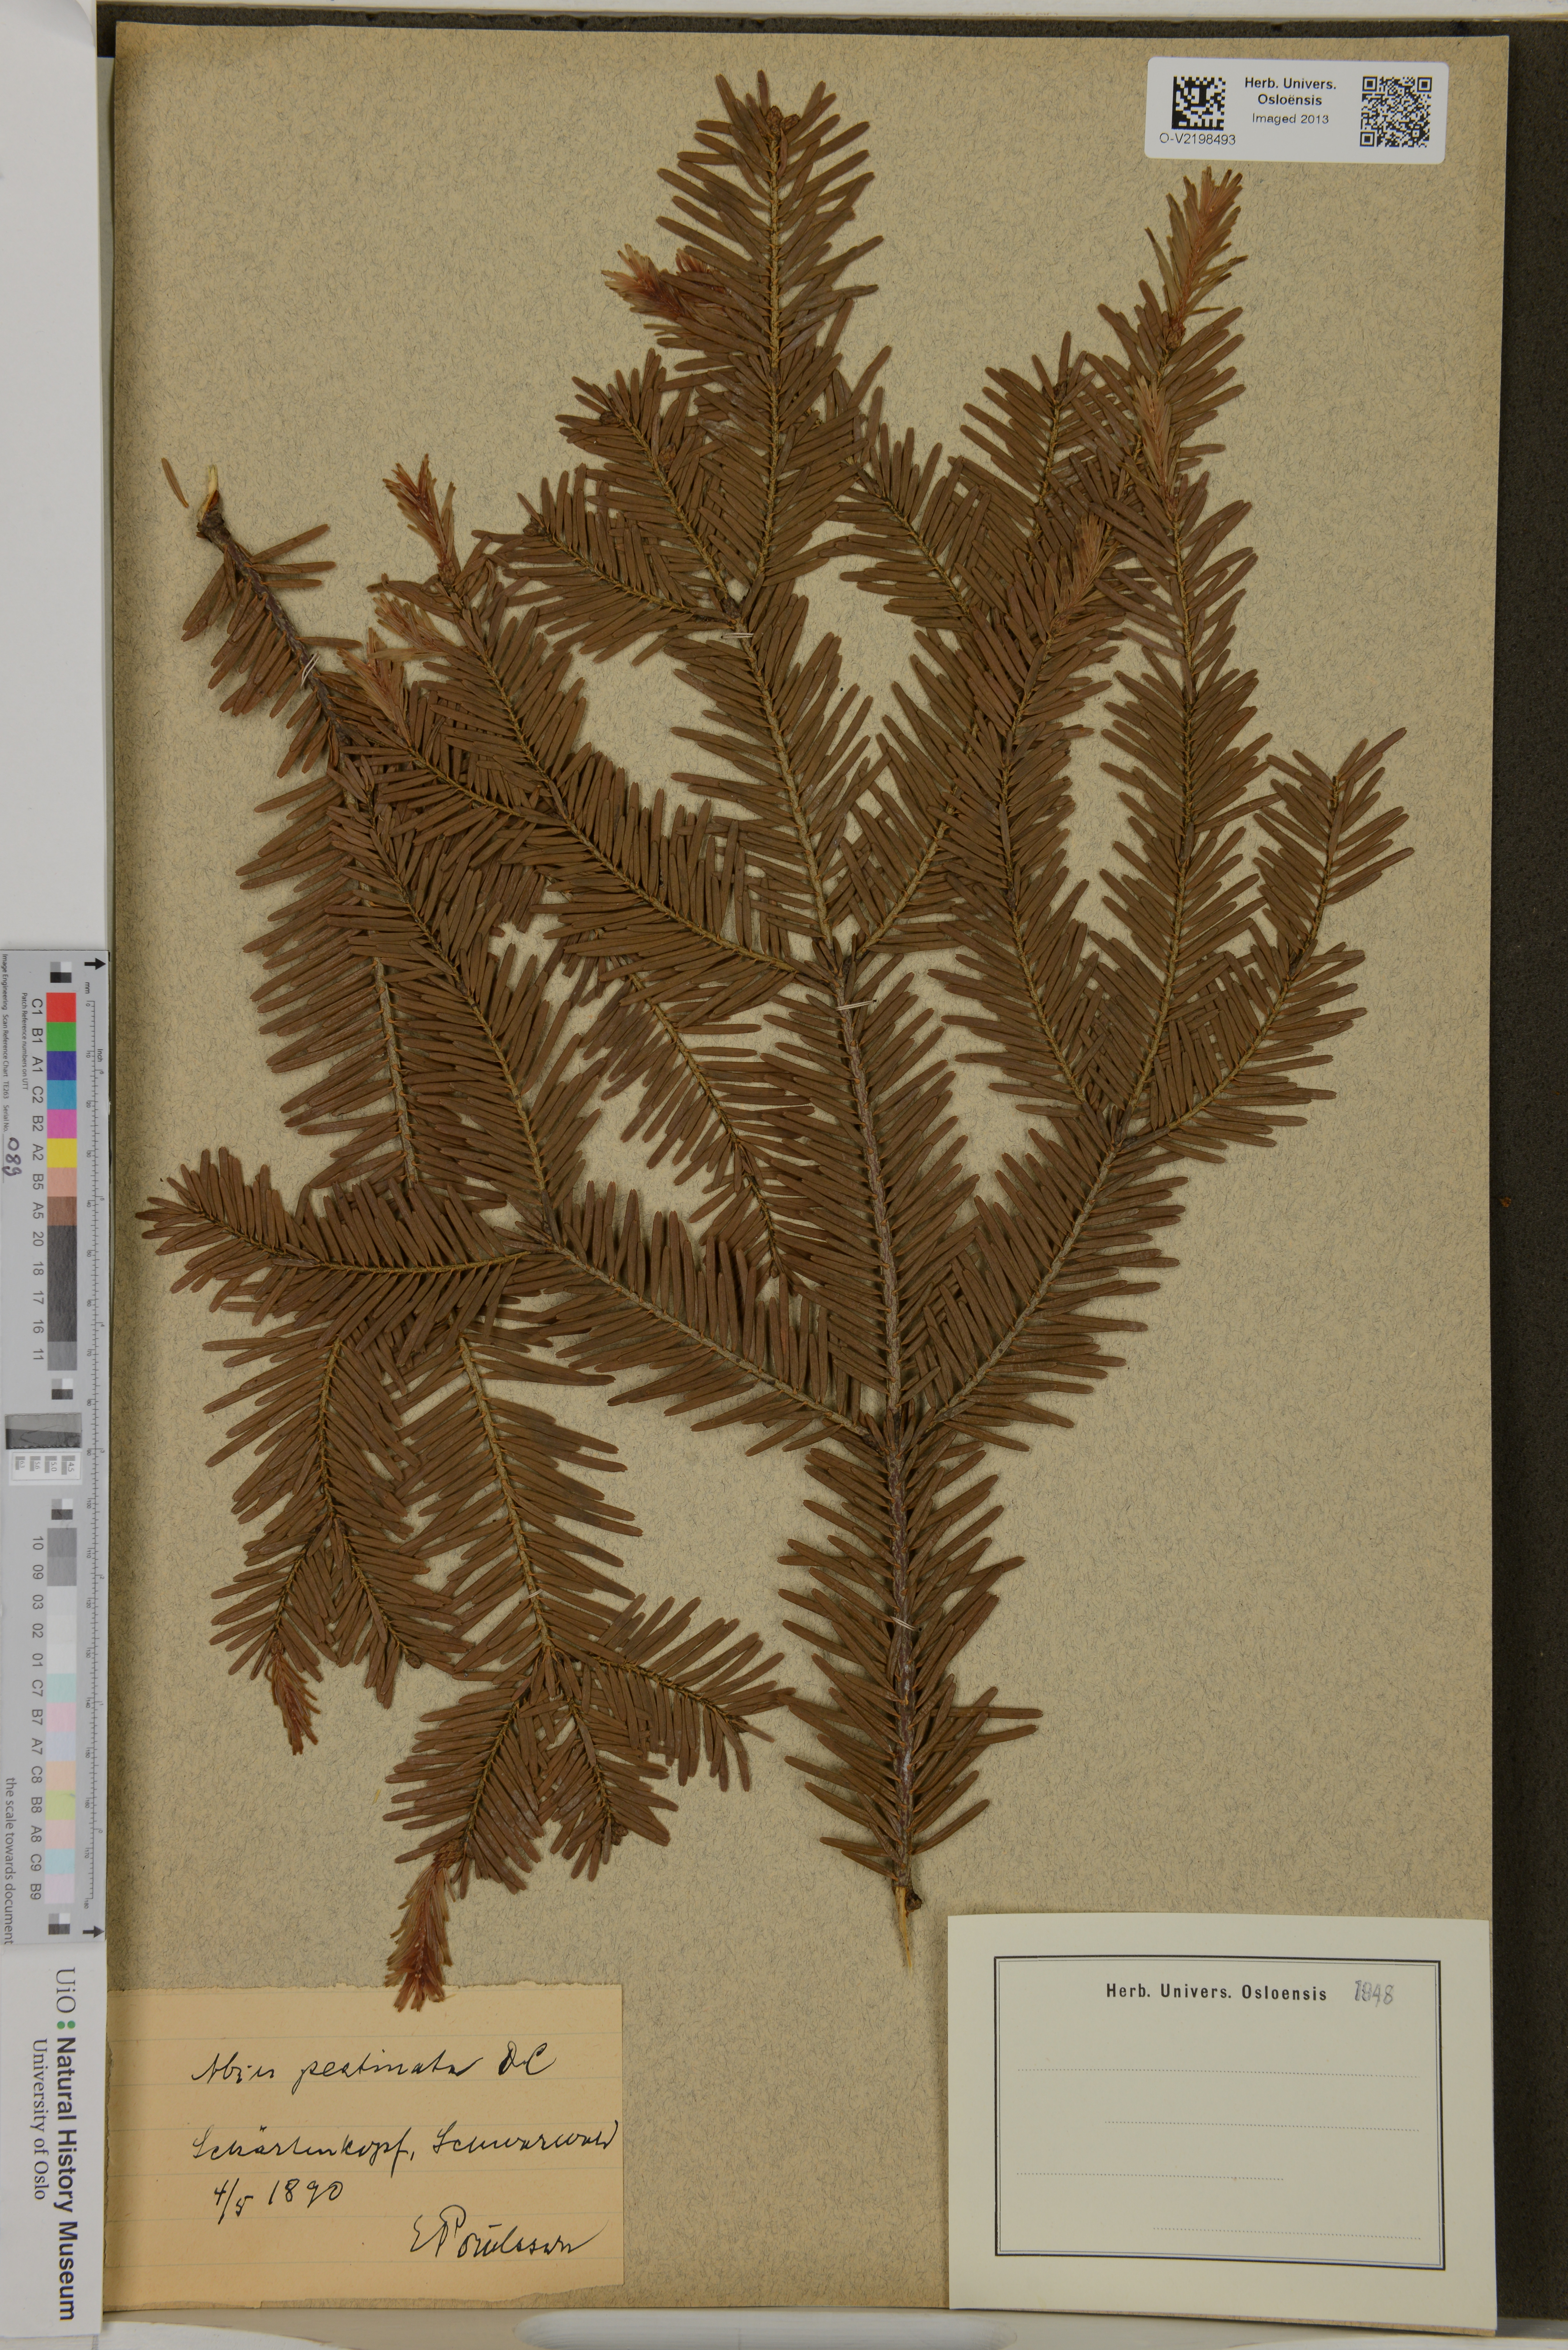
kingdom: Plantae
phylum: Tracheophyta
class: Pinopsida
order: Pinales
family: Pinaceae
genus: Abies
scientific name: Abies alba
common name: Silver fir
